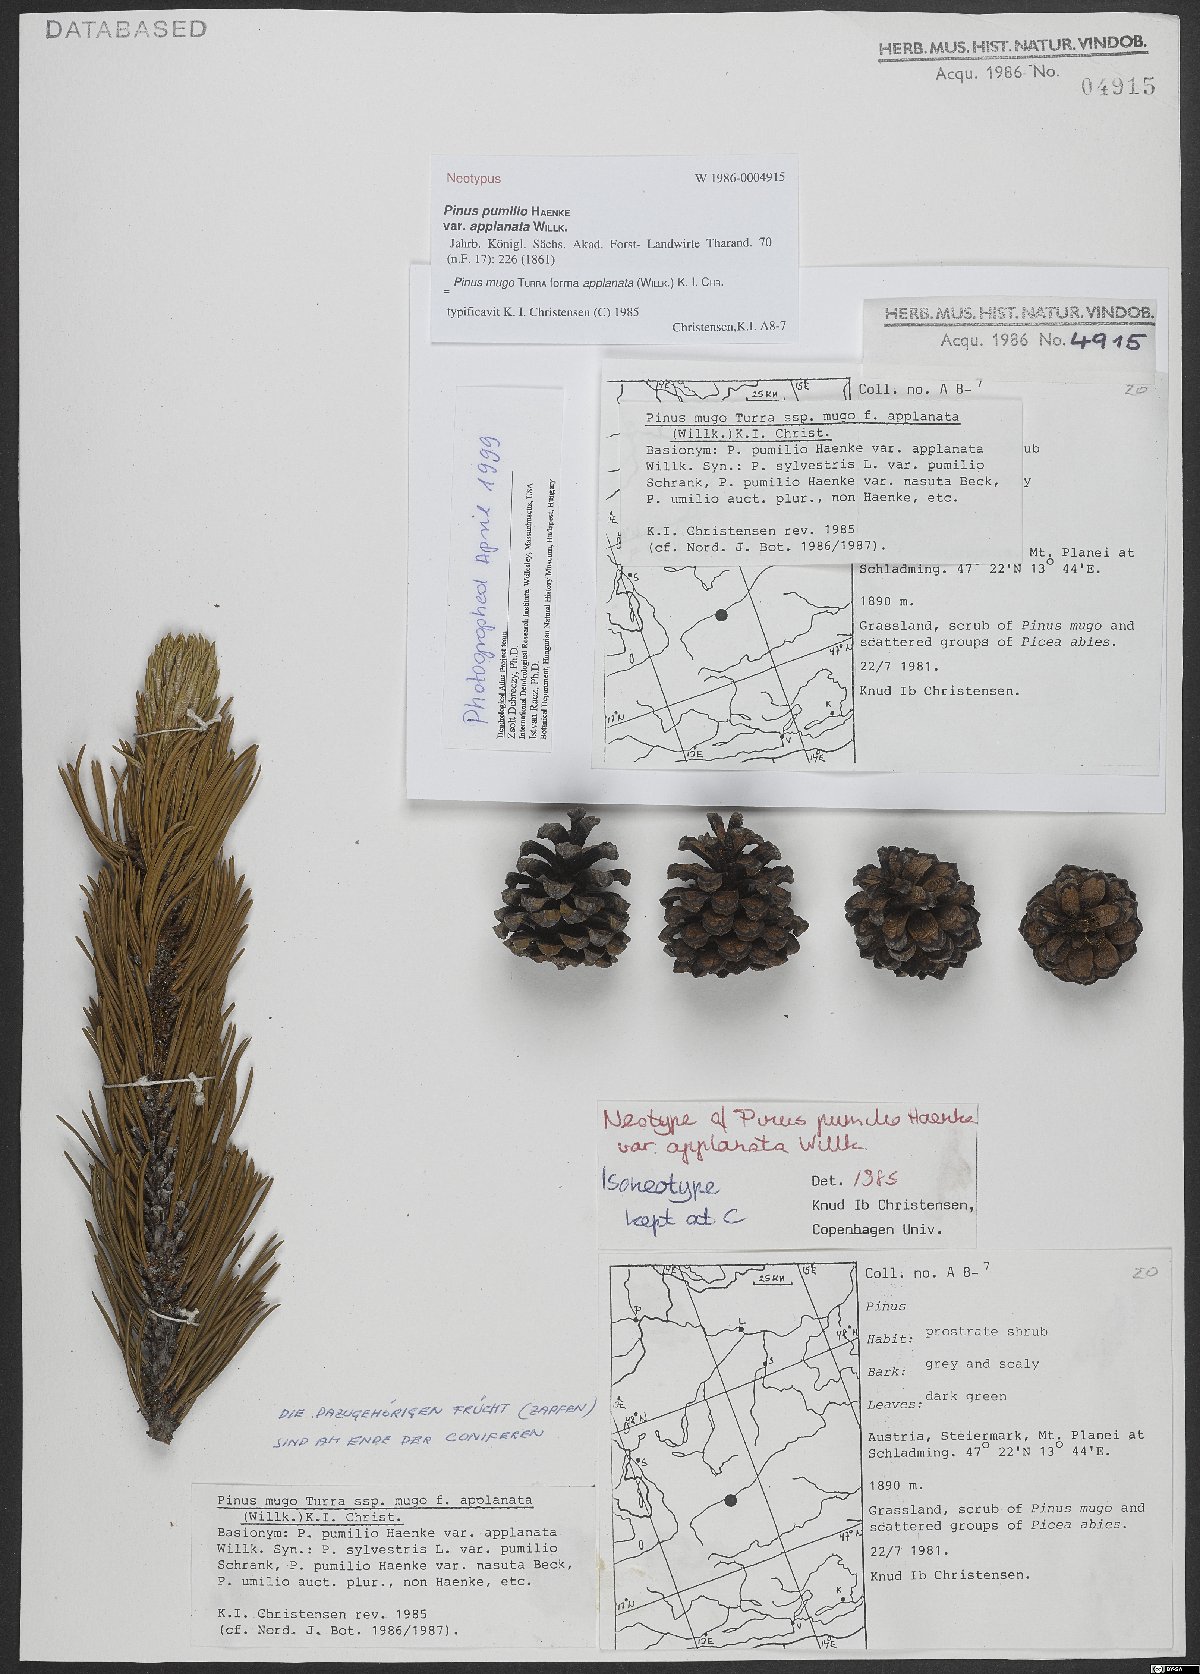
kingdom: Plantae
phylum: Tracheophyta
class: Pinopsida
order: Pinales
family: Pinaceae
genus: Pinus
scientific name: Pinus mugo
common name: Mugo pine
